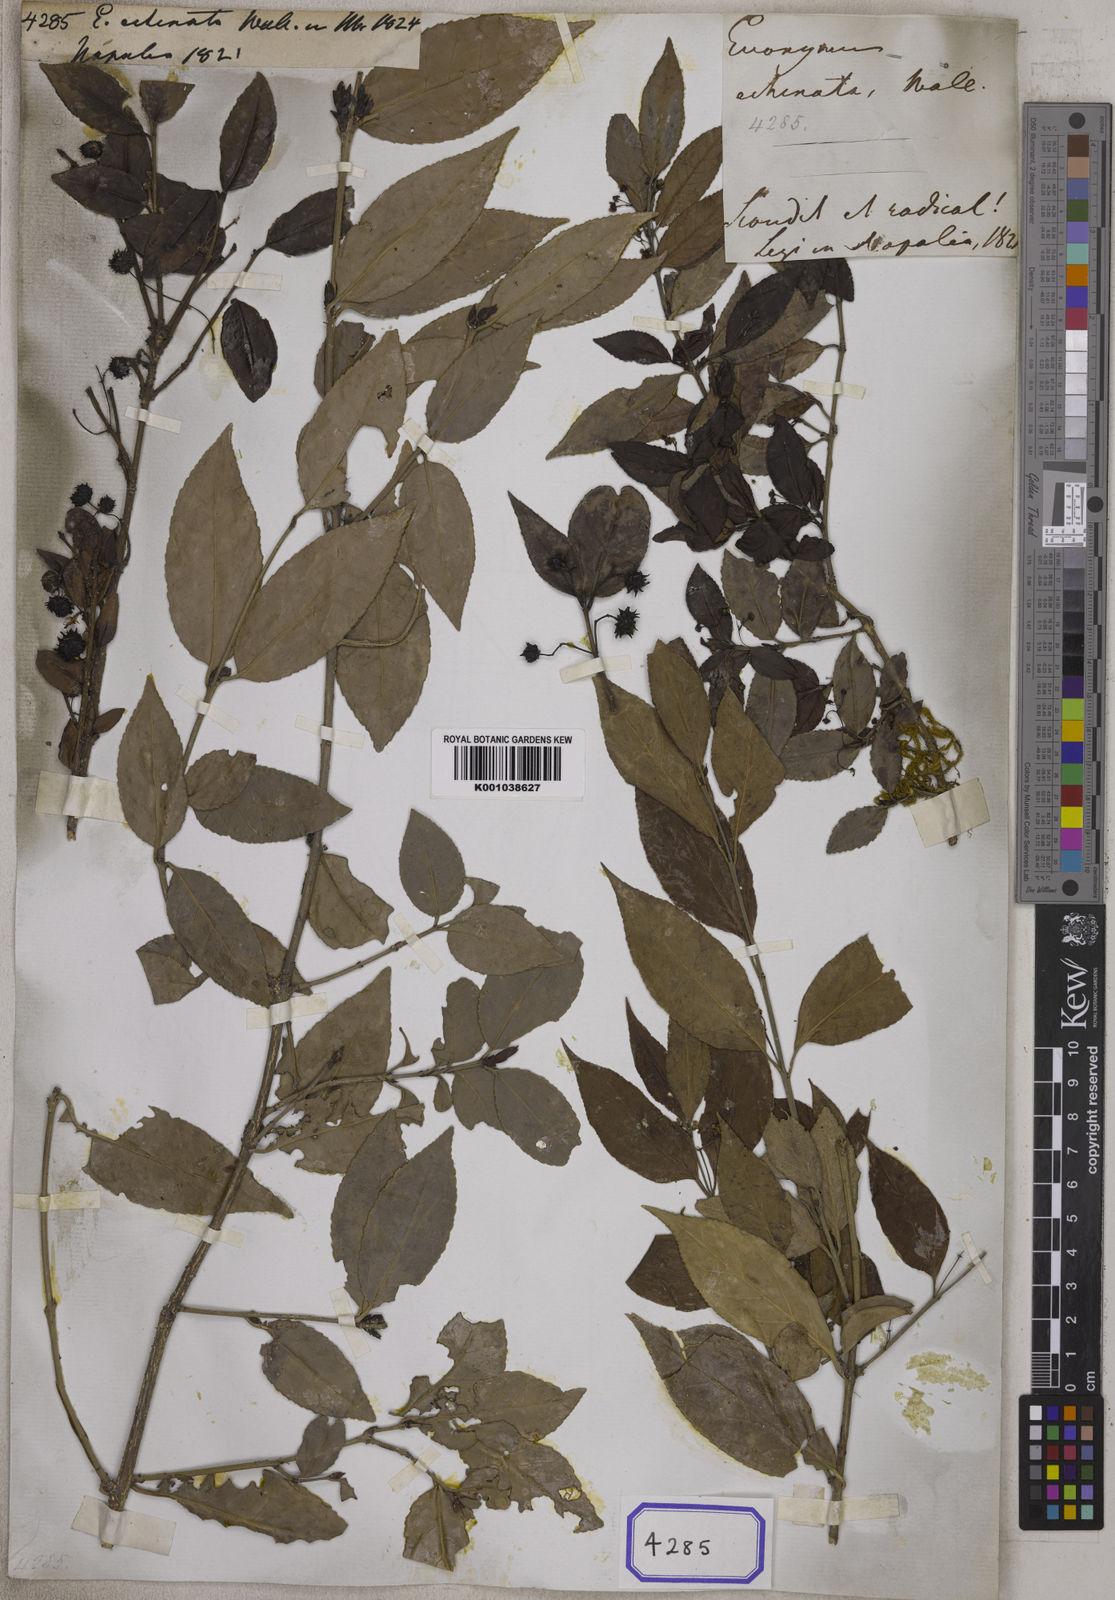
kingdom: Plantae
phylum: Tracheophyta
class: Magnoliopsida
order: Celastrales
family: Celastraceae
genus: Euonymus
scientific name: Euonymus echinatus
